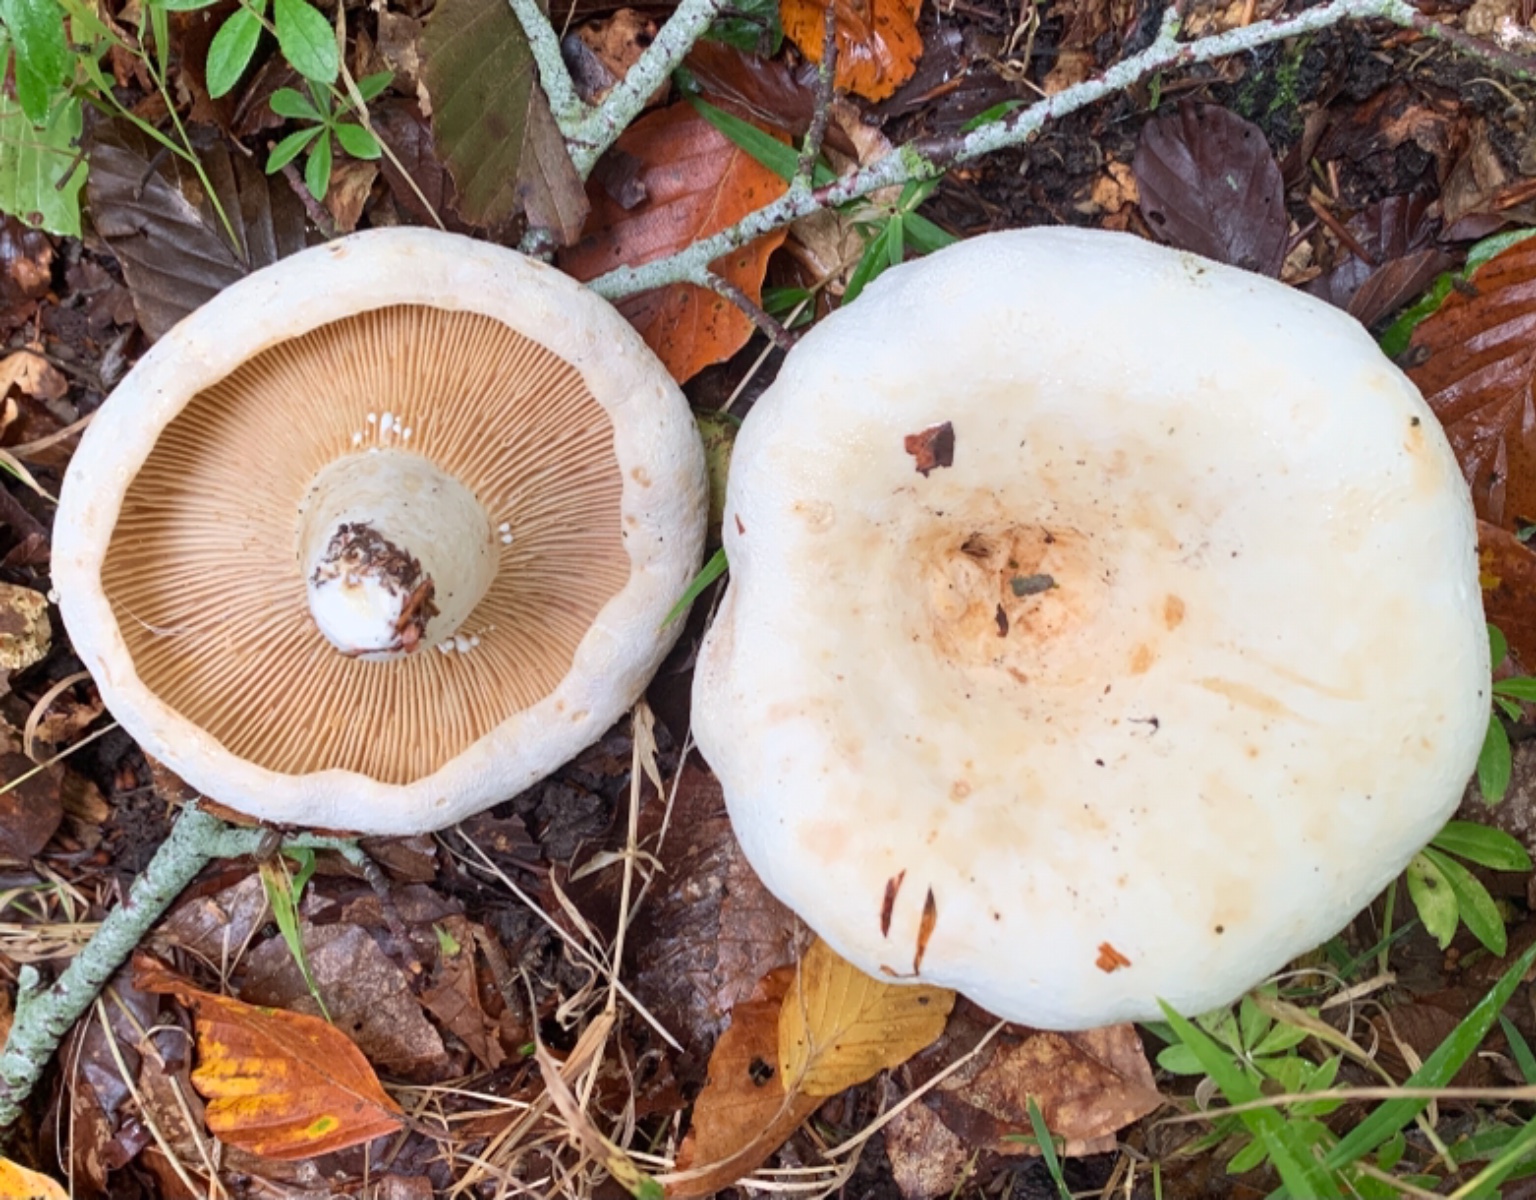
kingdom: Fungi
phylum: Basidiomycota
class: Agaricomycetes
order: Russulales
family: Russulaceae
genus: Lactifluus
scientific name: Lactifluus piperatus
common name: peber-mælkehat
